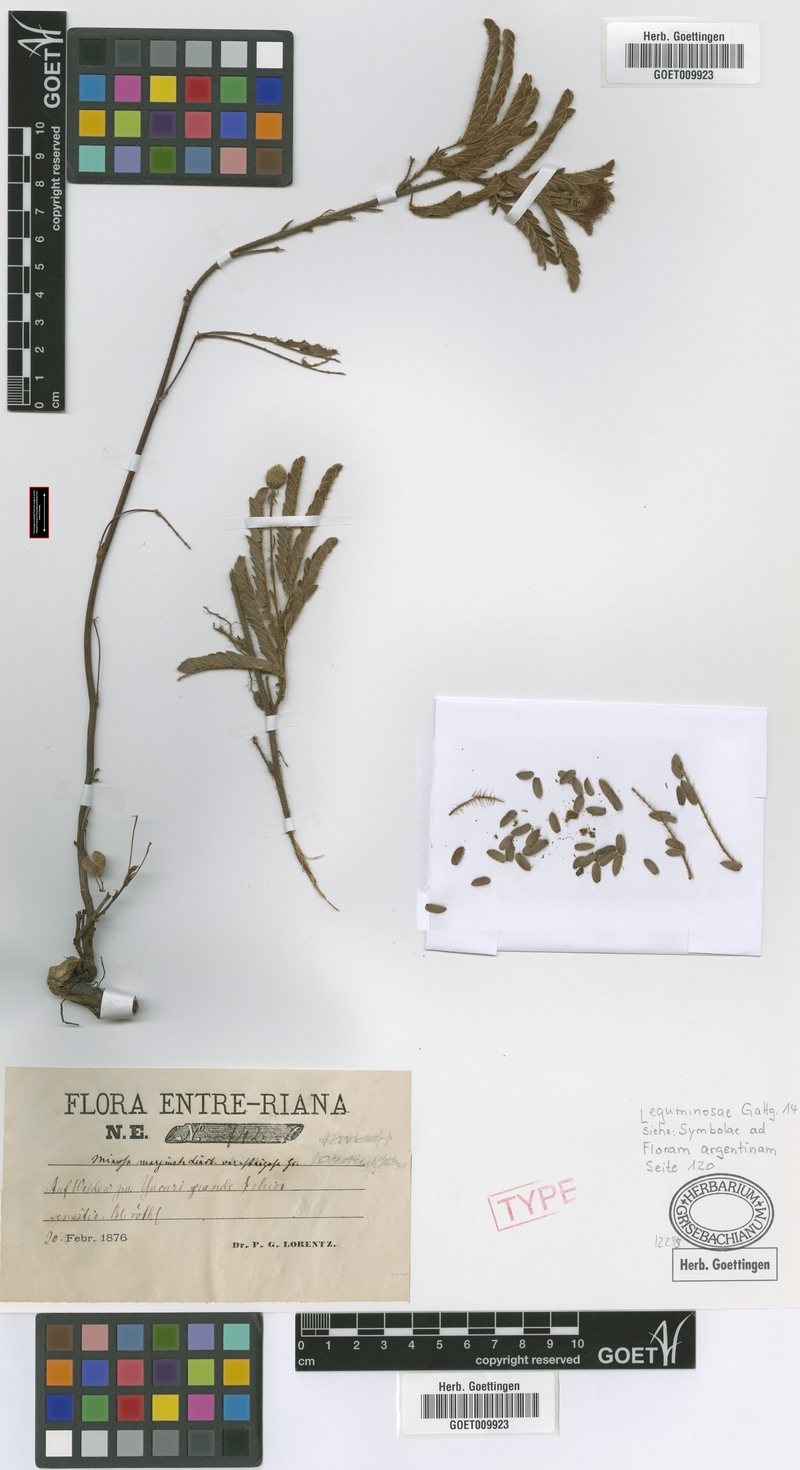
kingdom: Plantae
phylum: Tracheophyta
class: Magnoliopsida
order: Fabales
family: Fabaceae
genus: Mimosa
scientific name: Mimosa dolens
